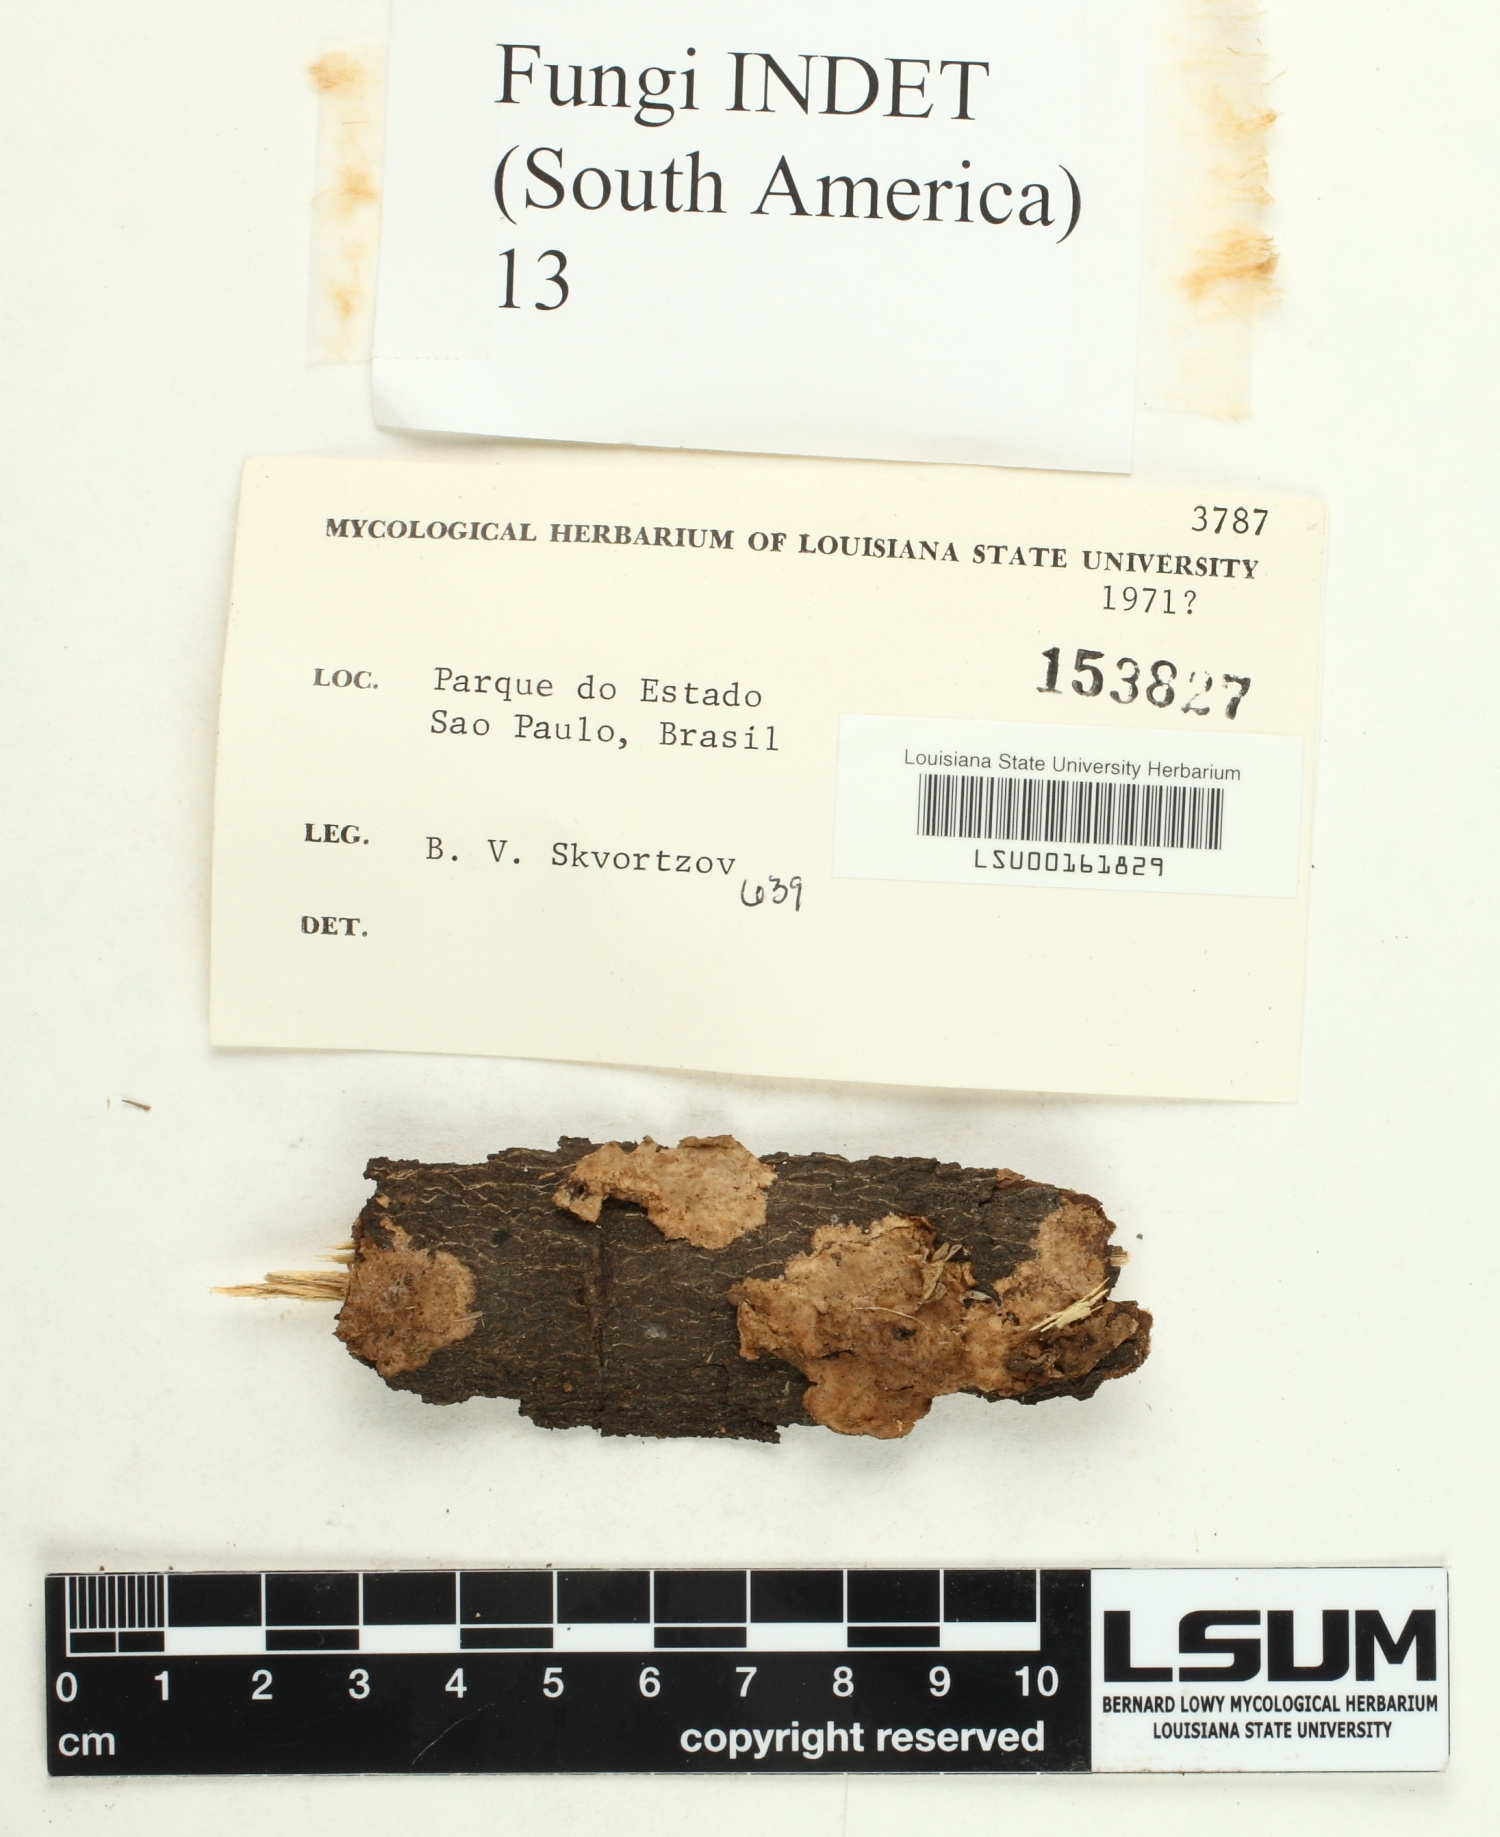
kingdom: Fungi
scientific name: Fungi
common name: Fungi
